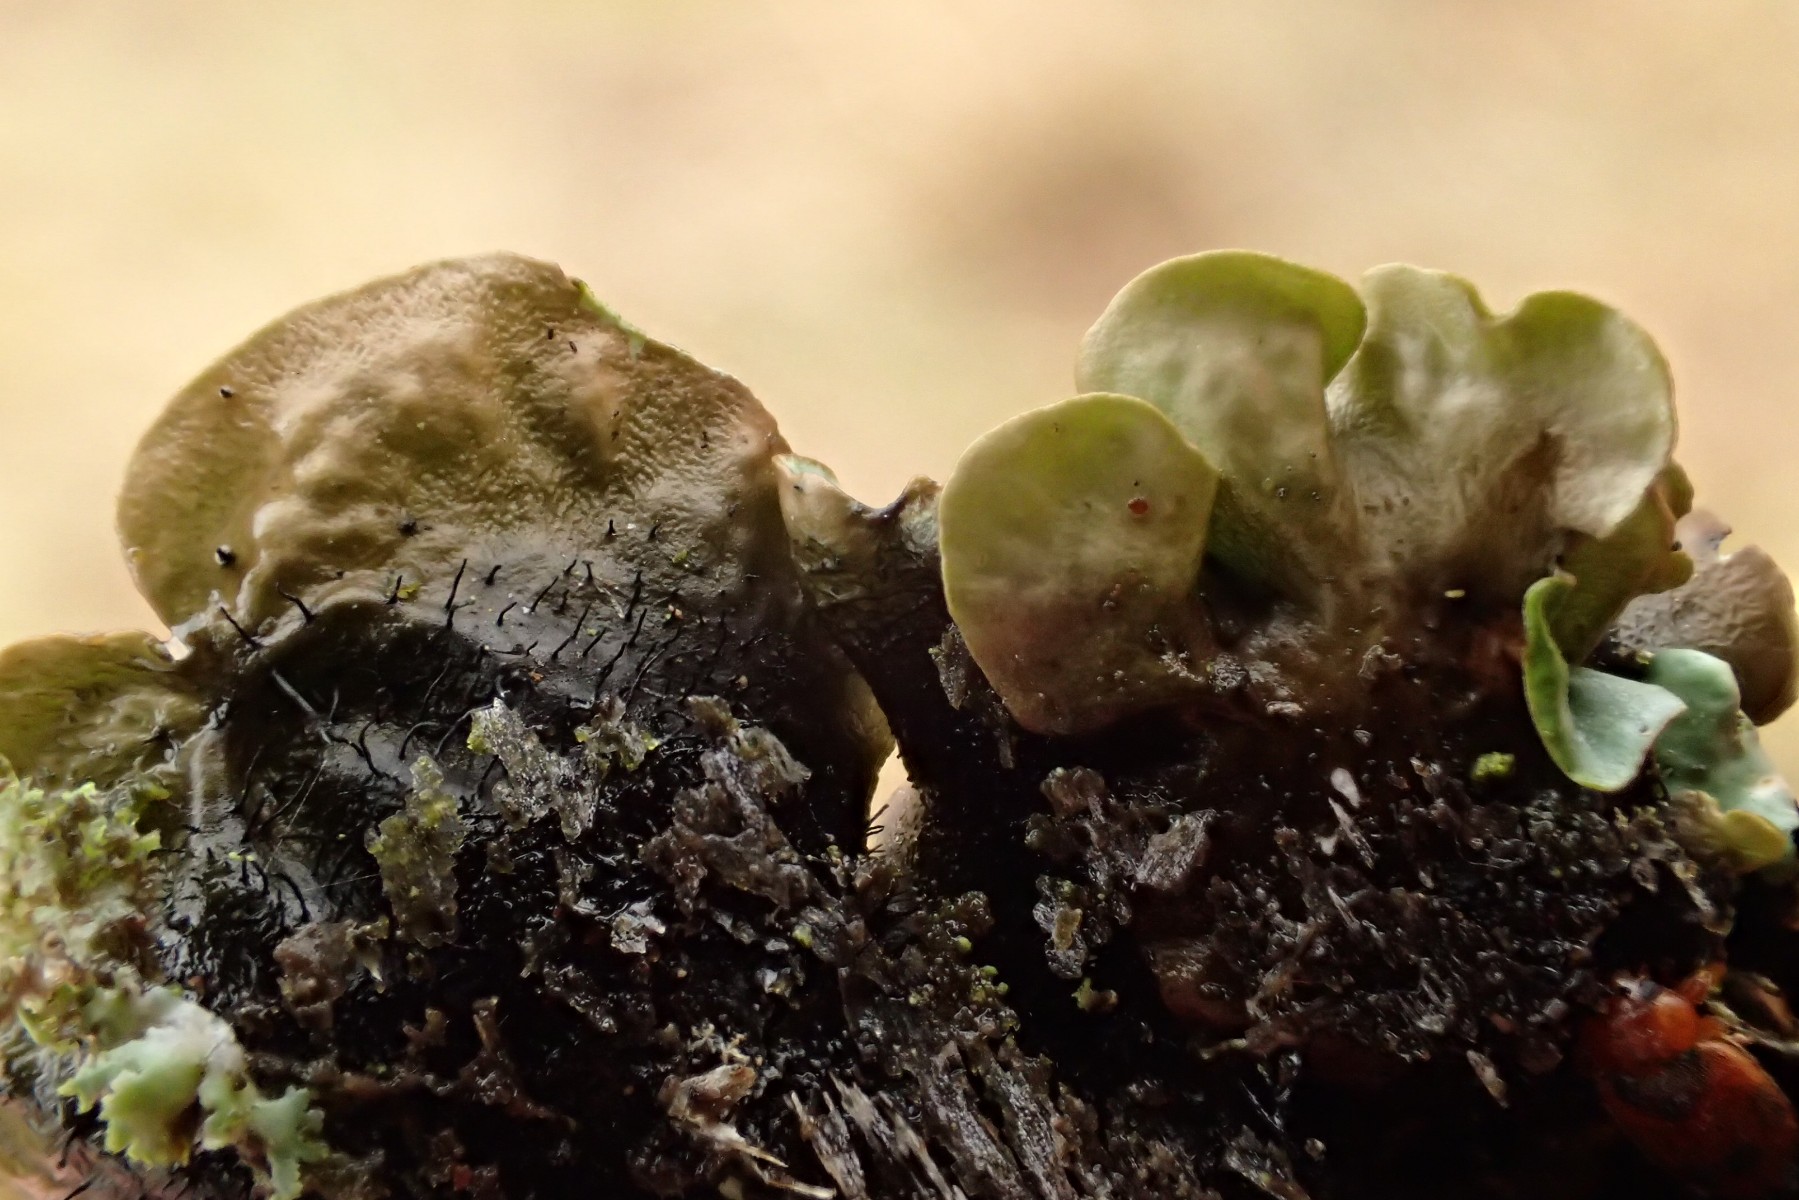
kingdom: Fungi
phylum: Ascomycota
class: Lecanoromycetes
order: Lecanorales
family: Parmeliaceae
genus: Parmotrema
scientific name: Parmotrema perlatum
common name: trådet skållav
